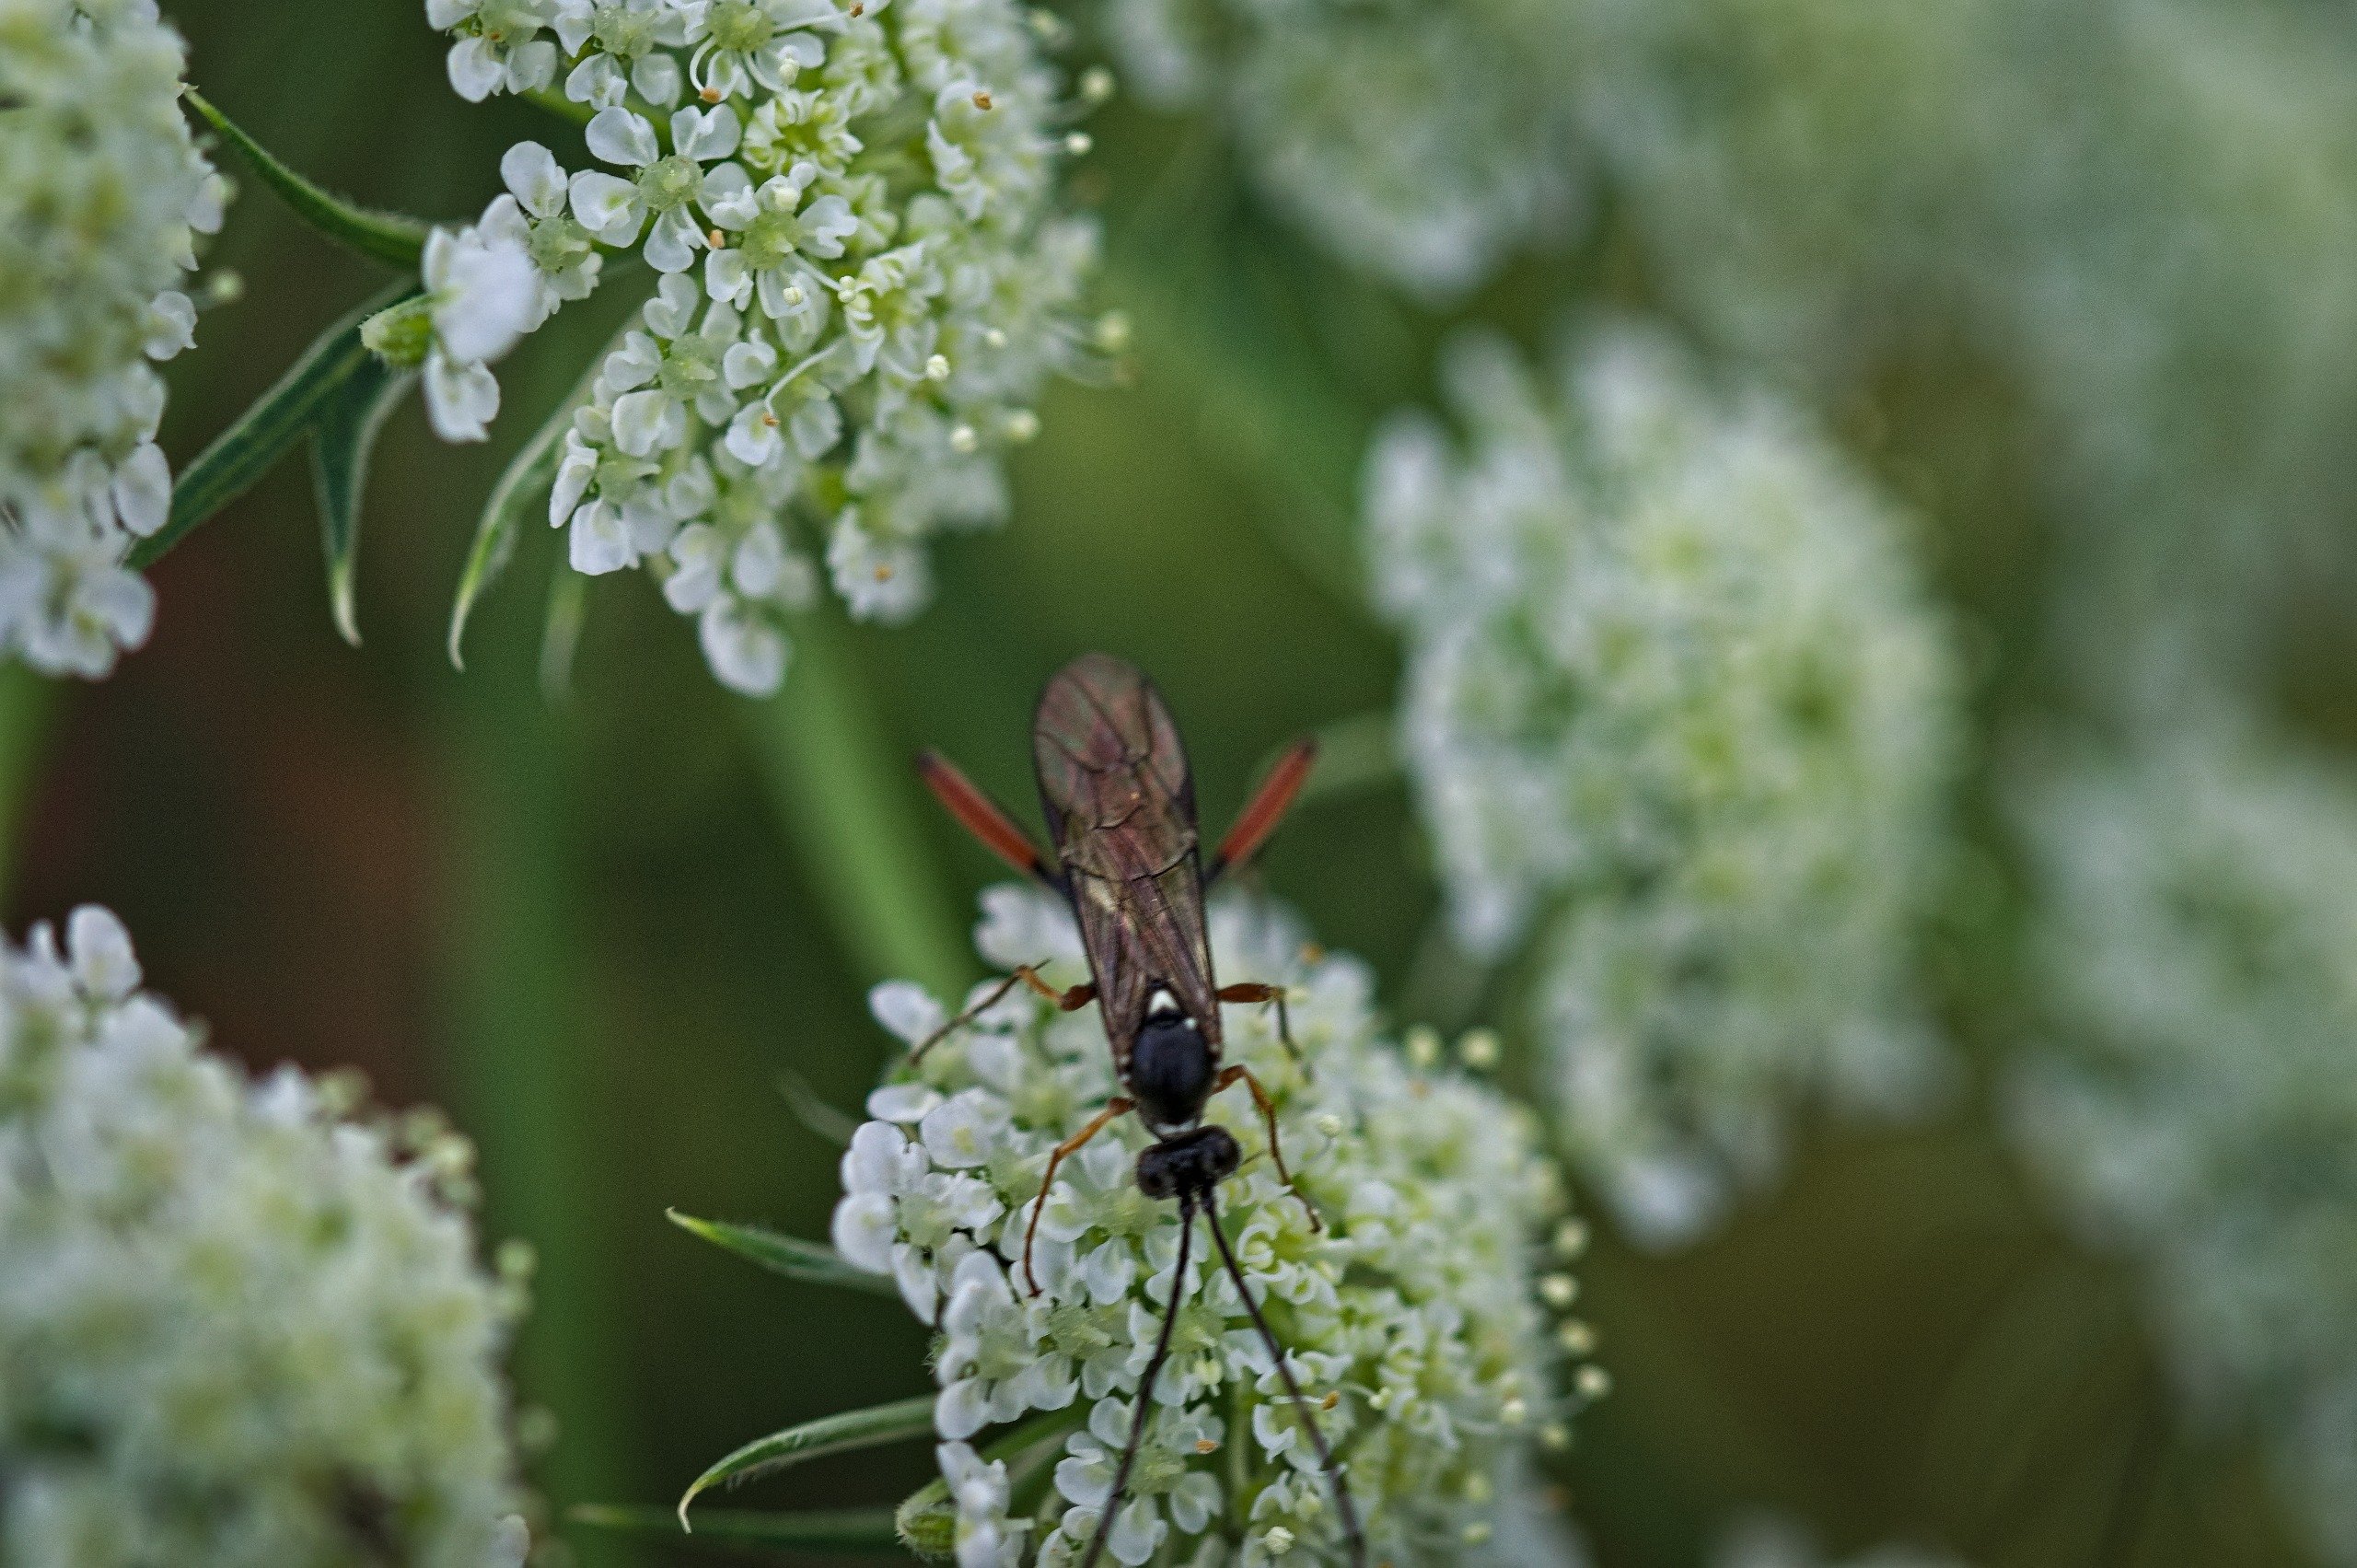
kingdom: Animalia
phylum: Arthropoda
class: Insecta
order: Hymenoptera
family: Ichneumonidae
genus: Exetastes
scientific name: Exetastes adpressorius
